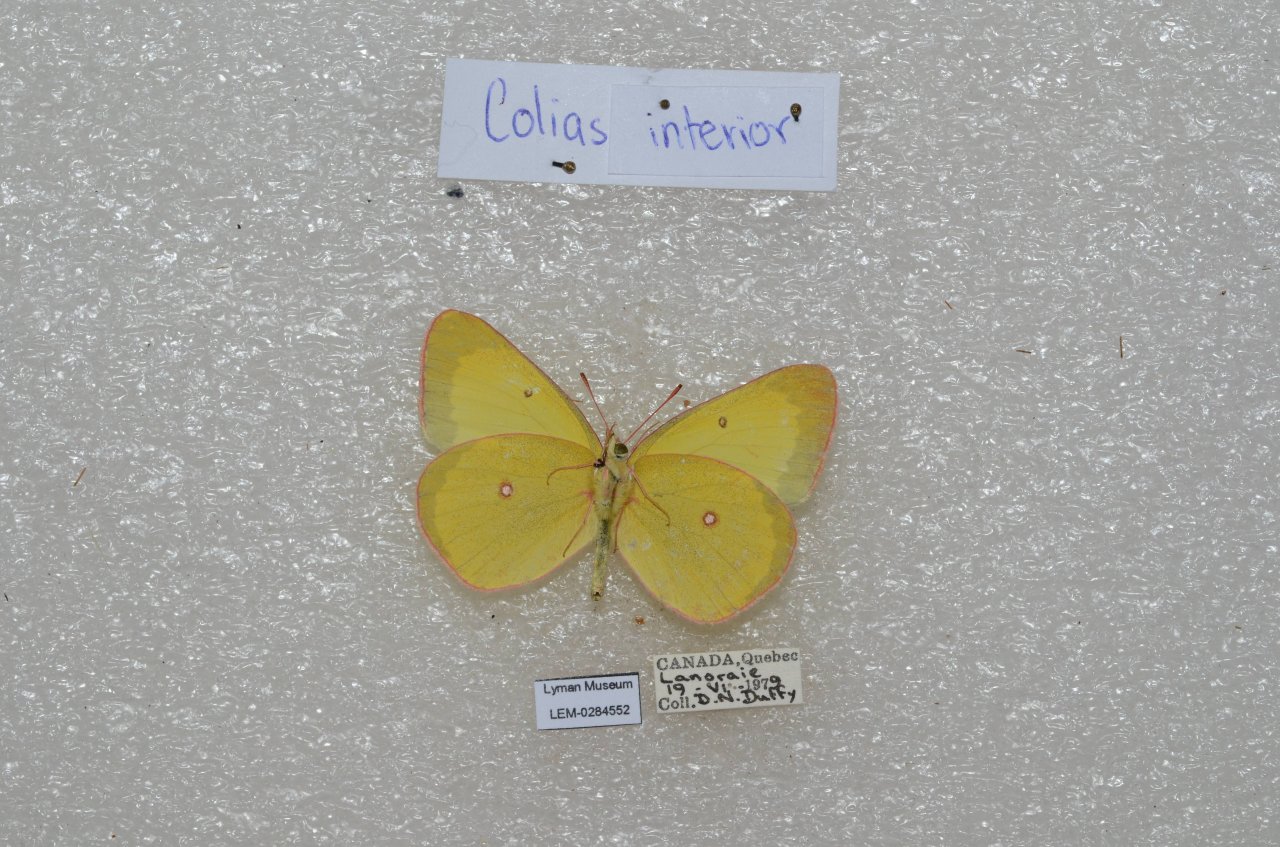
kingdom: Animalia
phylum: Arthropoda
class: Insecta
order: Lepidoptera
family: Pieridae
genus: Colias
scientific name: Colias interior
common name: Pink-edged Sulphur
